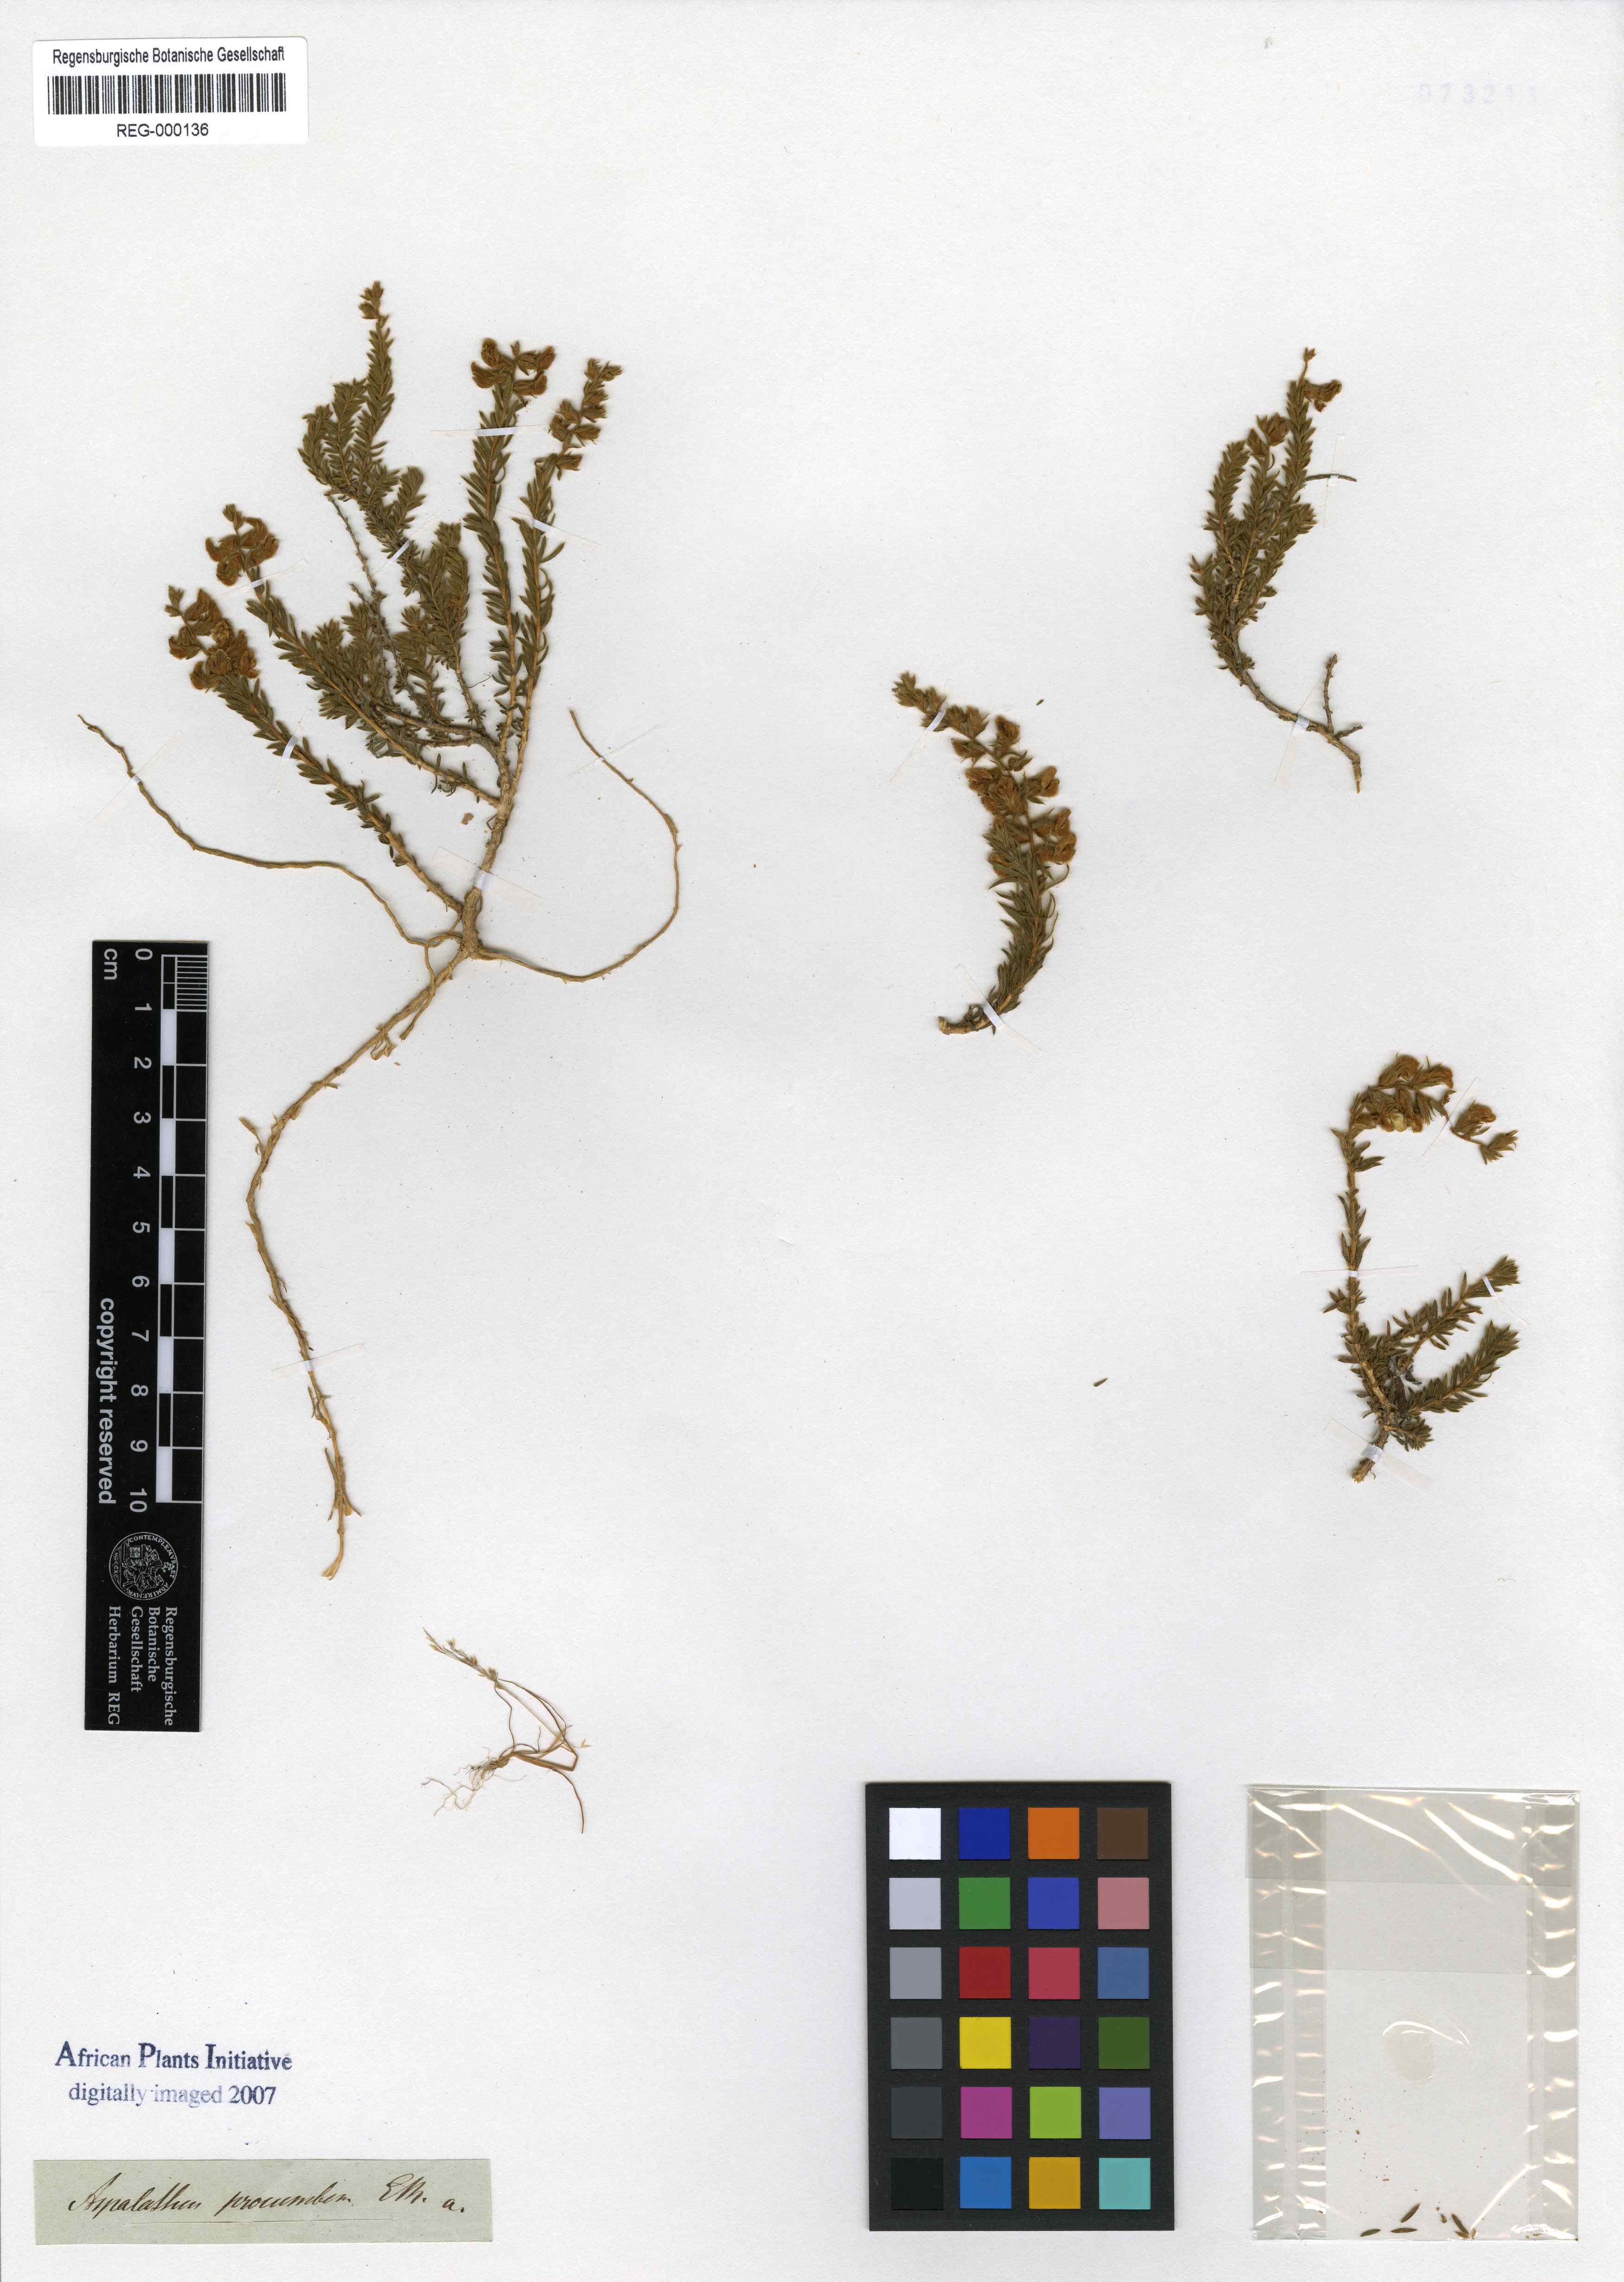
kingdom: Plantae
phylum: Tracheophyta
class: Magnoliopsida
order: Fabales
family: Fabaceae
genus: Aspalathus
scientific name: Aspalathus lotoides
